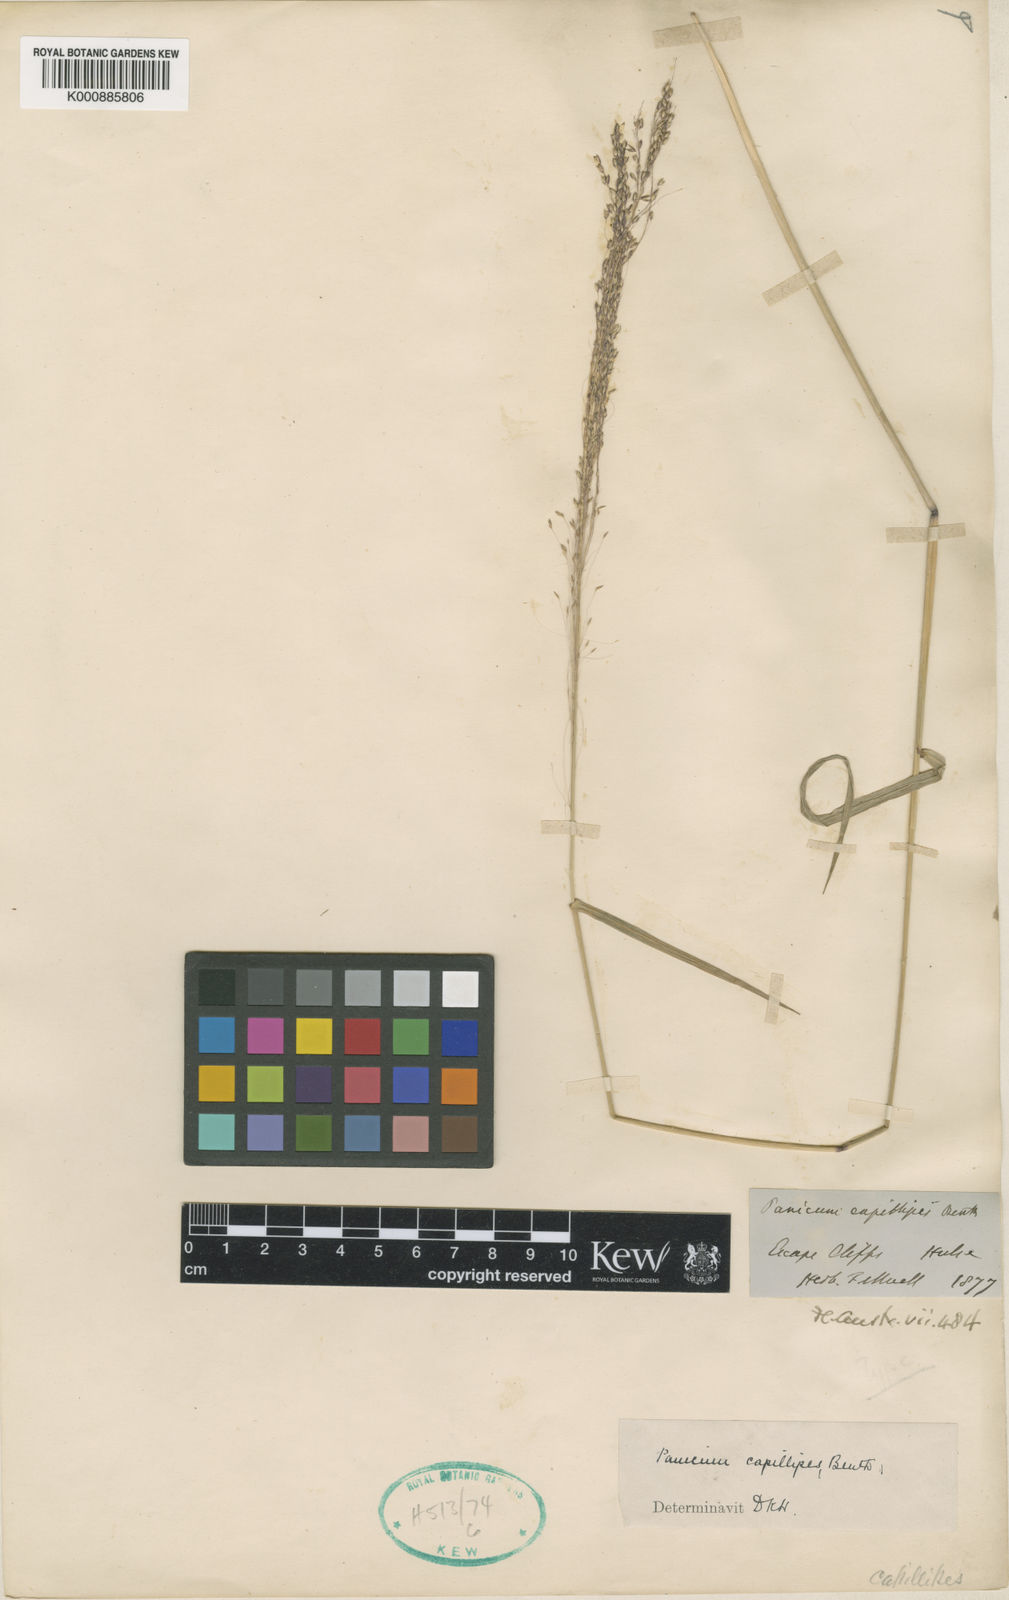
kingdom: Plantae
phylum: Tracheophyta
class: Liliopsida
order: Poales
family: Poaceae
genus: Whiteochloa
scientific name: Whiteochloa capillipes
